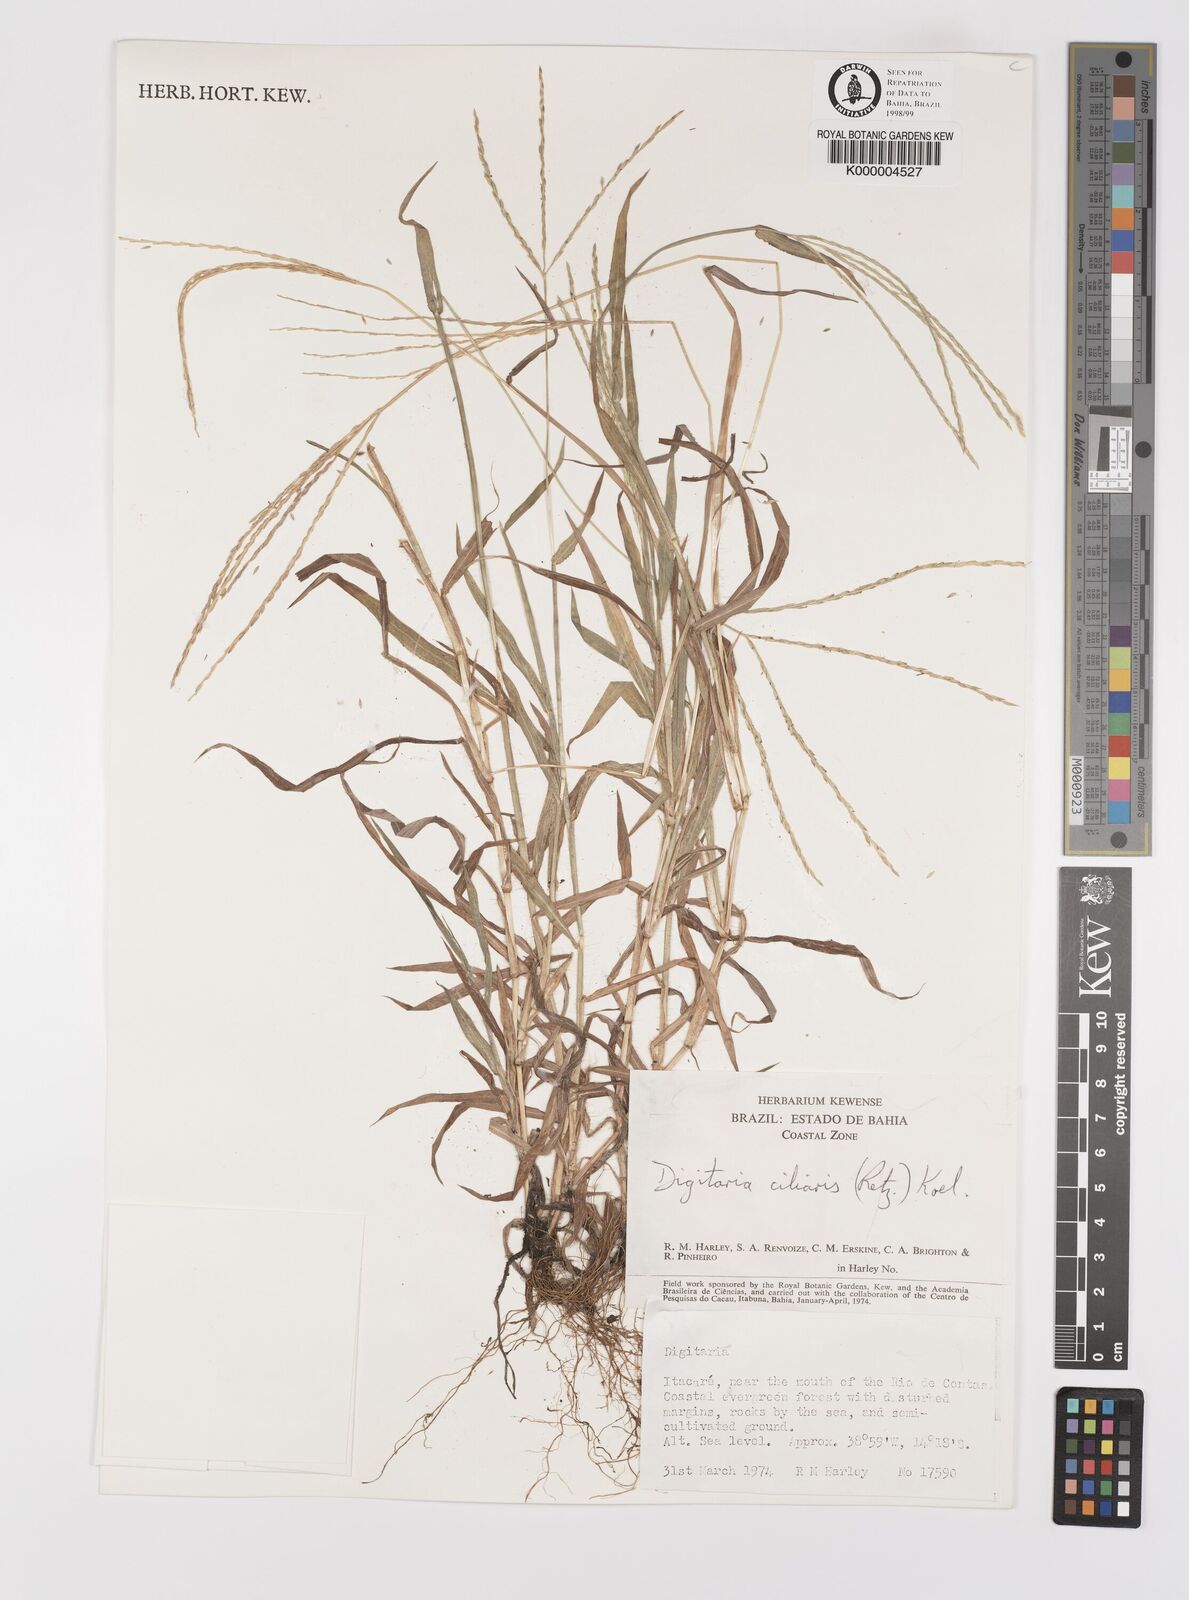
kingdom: Plantae
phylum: Tracheophyta
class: Liliopsida
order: Poales
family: Poaceae
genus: Digitaria
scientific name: Digitaria ciliaris
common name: Tropical finger-grass
